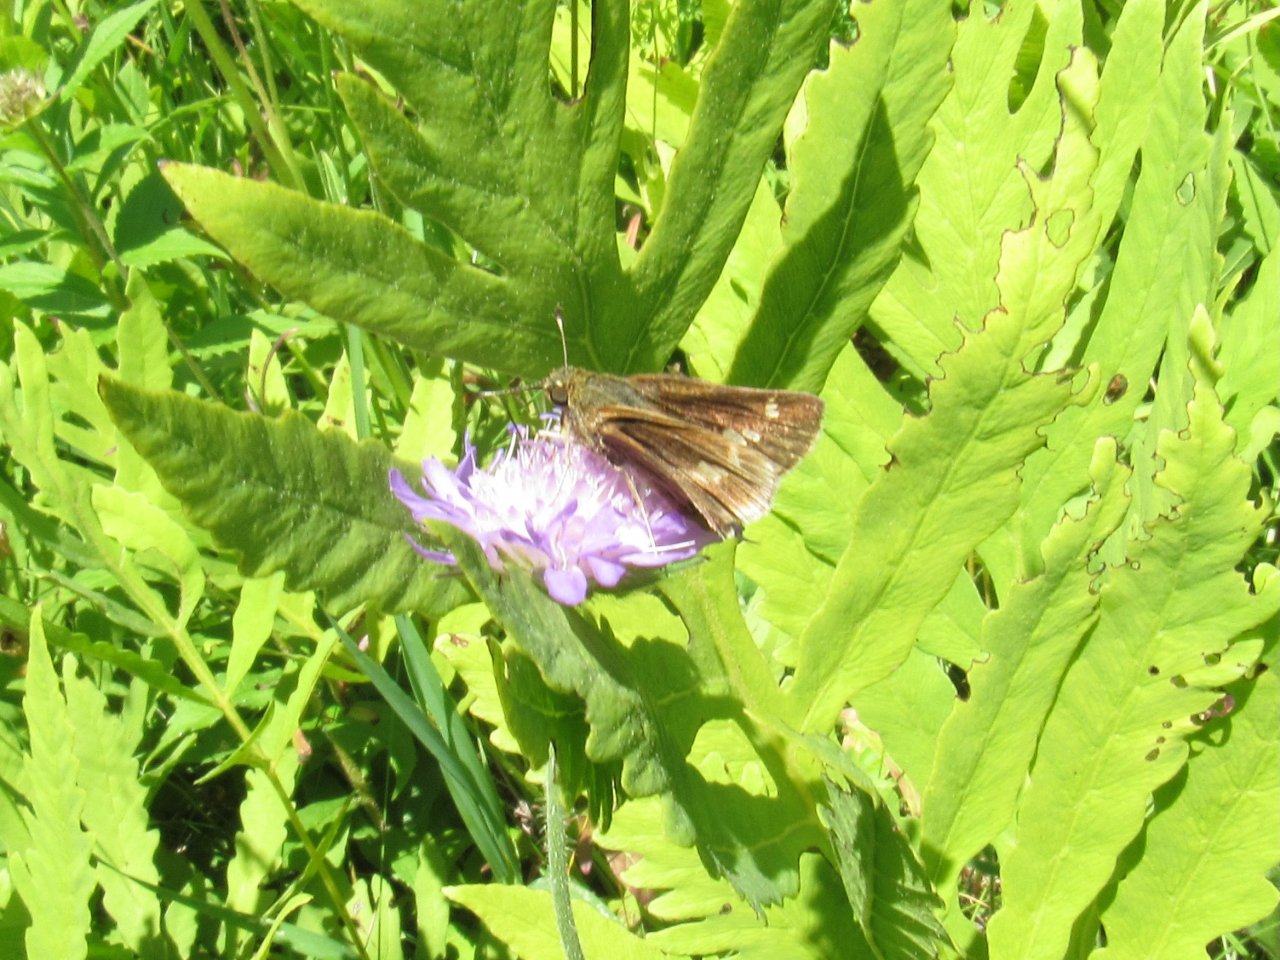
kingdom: Animalia
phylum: Arthropoda
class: Insecta
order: Lepidoptera
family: Hesperiidae
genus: Vernia
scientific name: Vernia verna
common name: Little Glassywing
